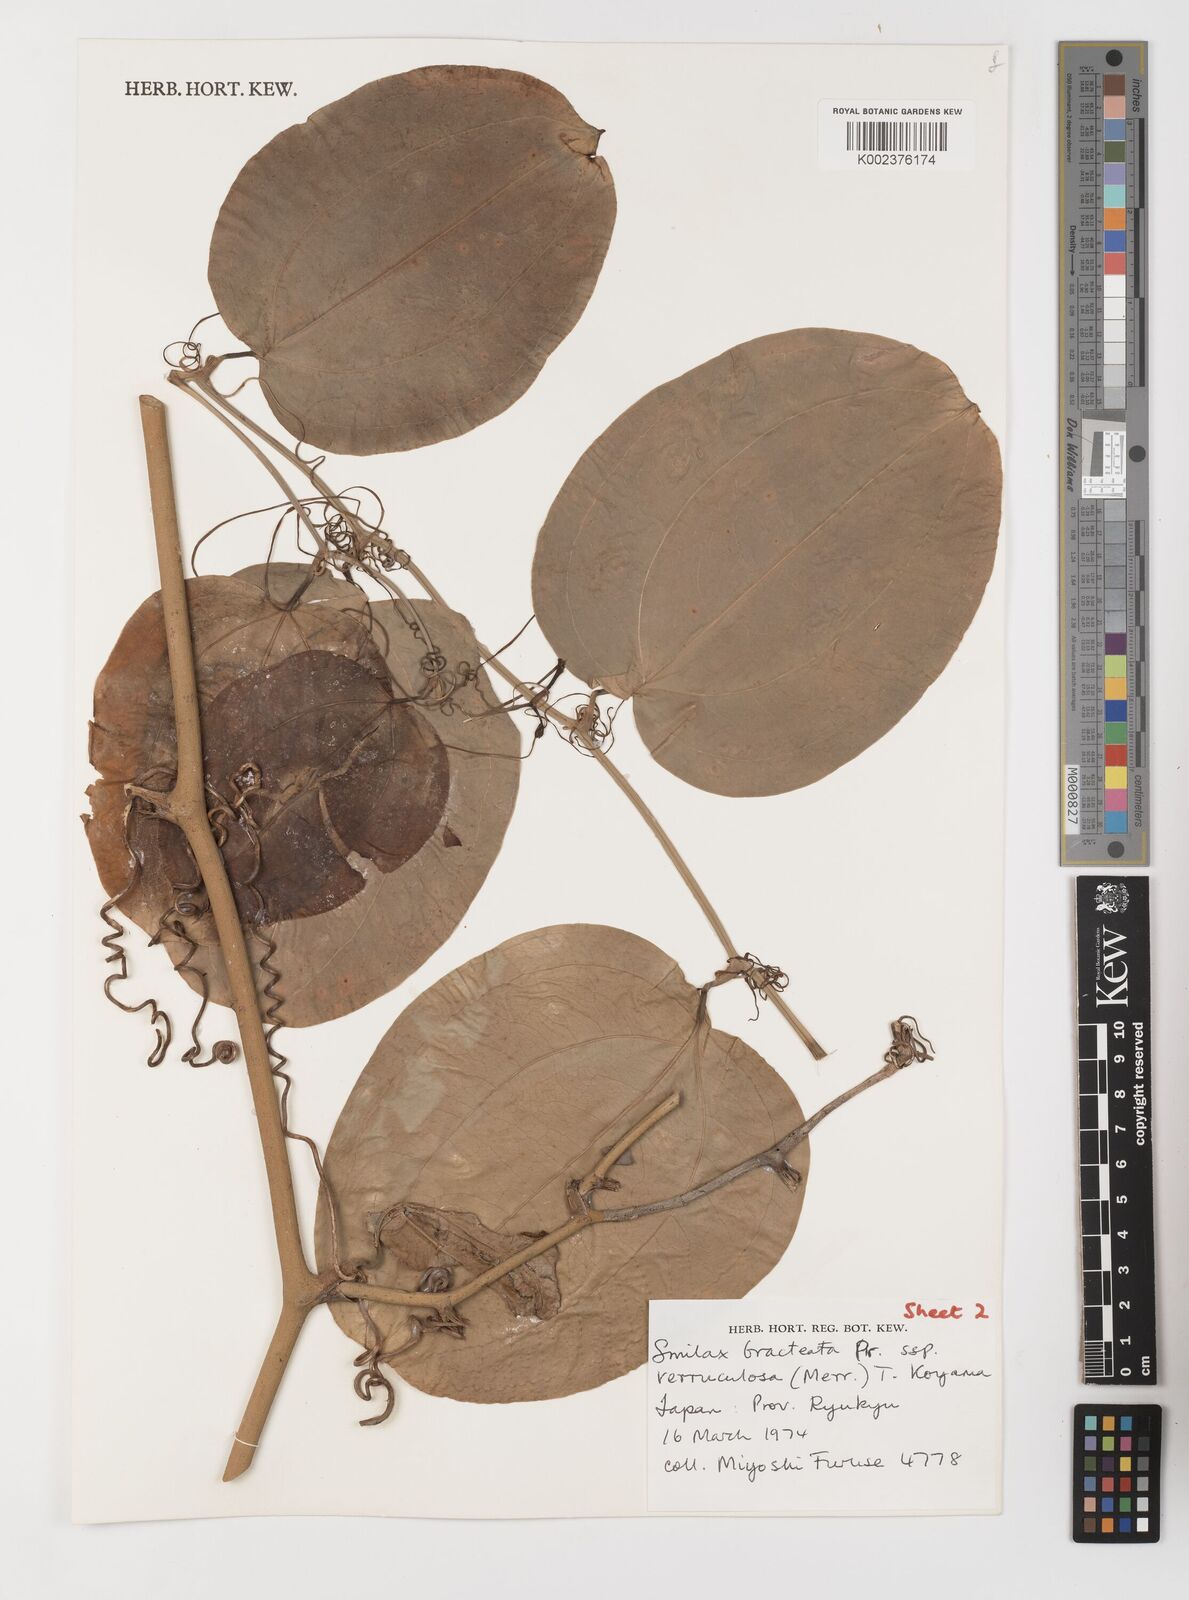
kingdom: Plantae
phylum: Tracheophyta
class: Liliopsida
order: Liliales
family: Smilacaceae
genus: Smilax
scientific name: Smilax aspericaulis
